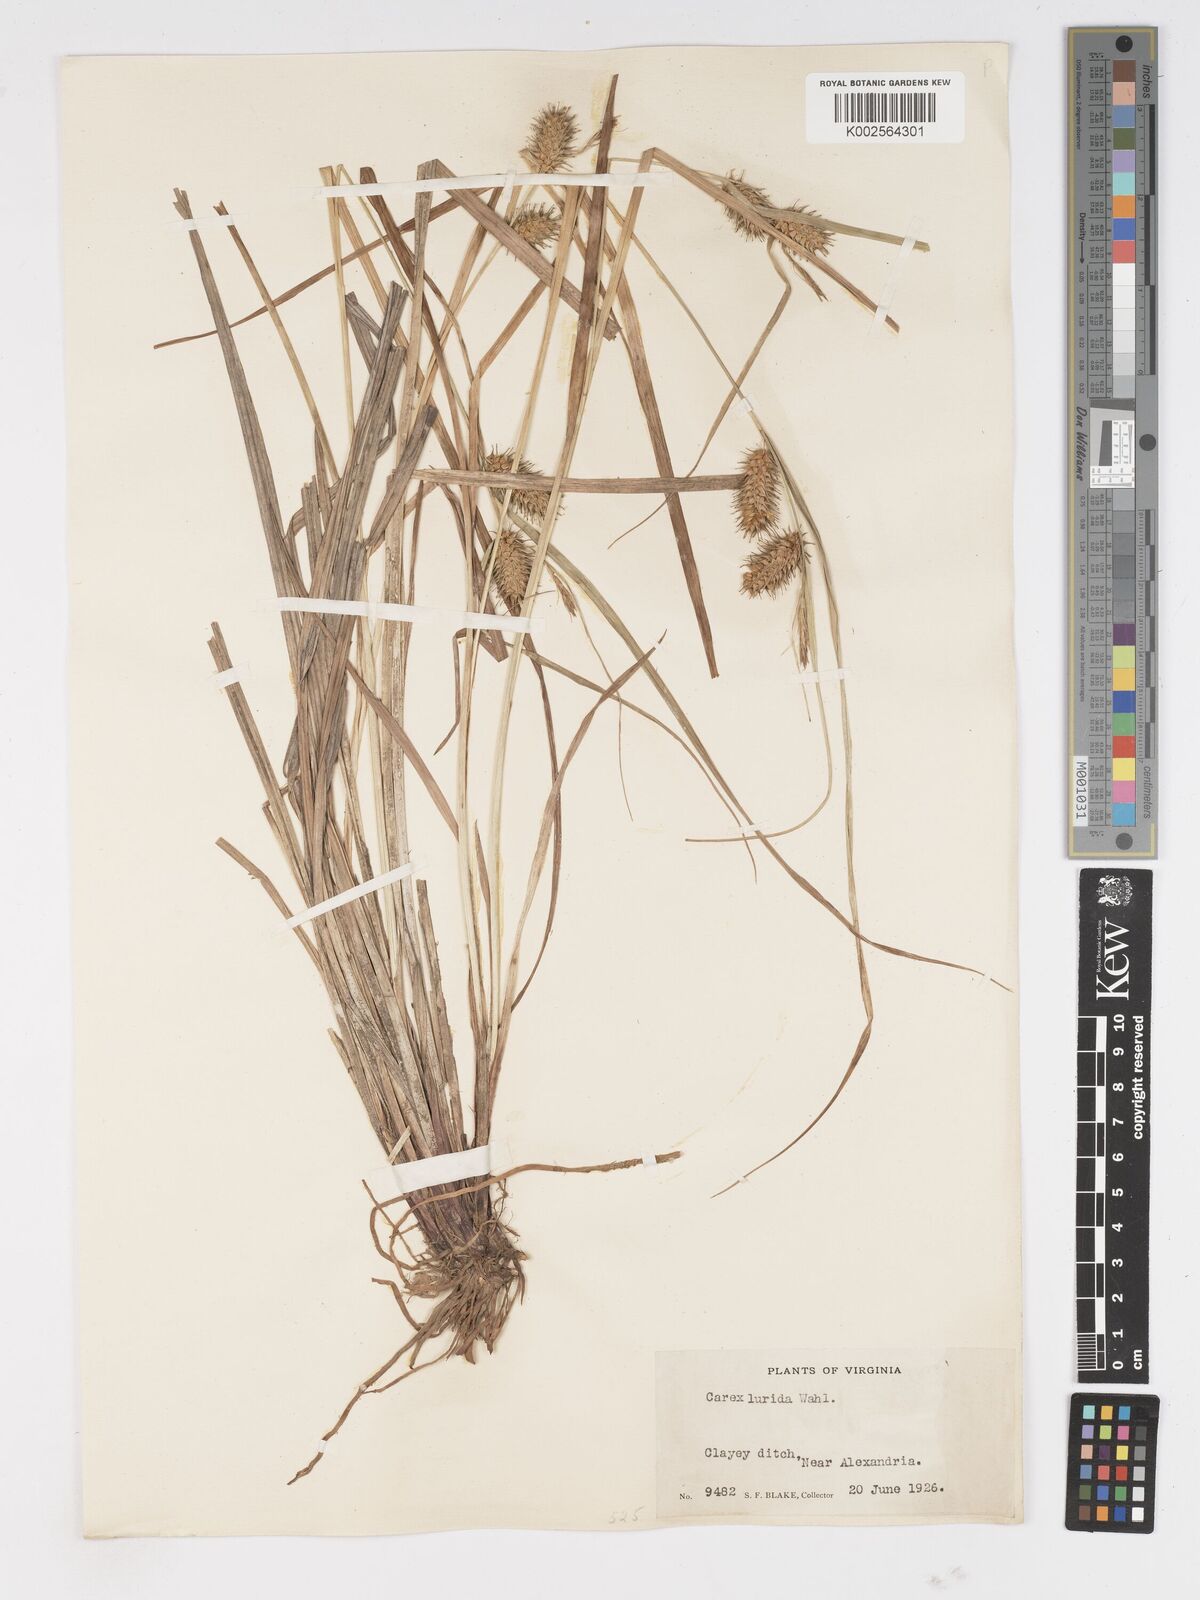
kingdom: Plantae
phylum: Tracheophyta
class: Liliopsida
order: Poales
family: Cyperaceae
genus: Carex
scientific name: Carex lurida
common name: Sallow sedge
